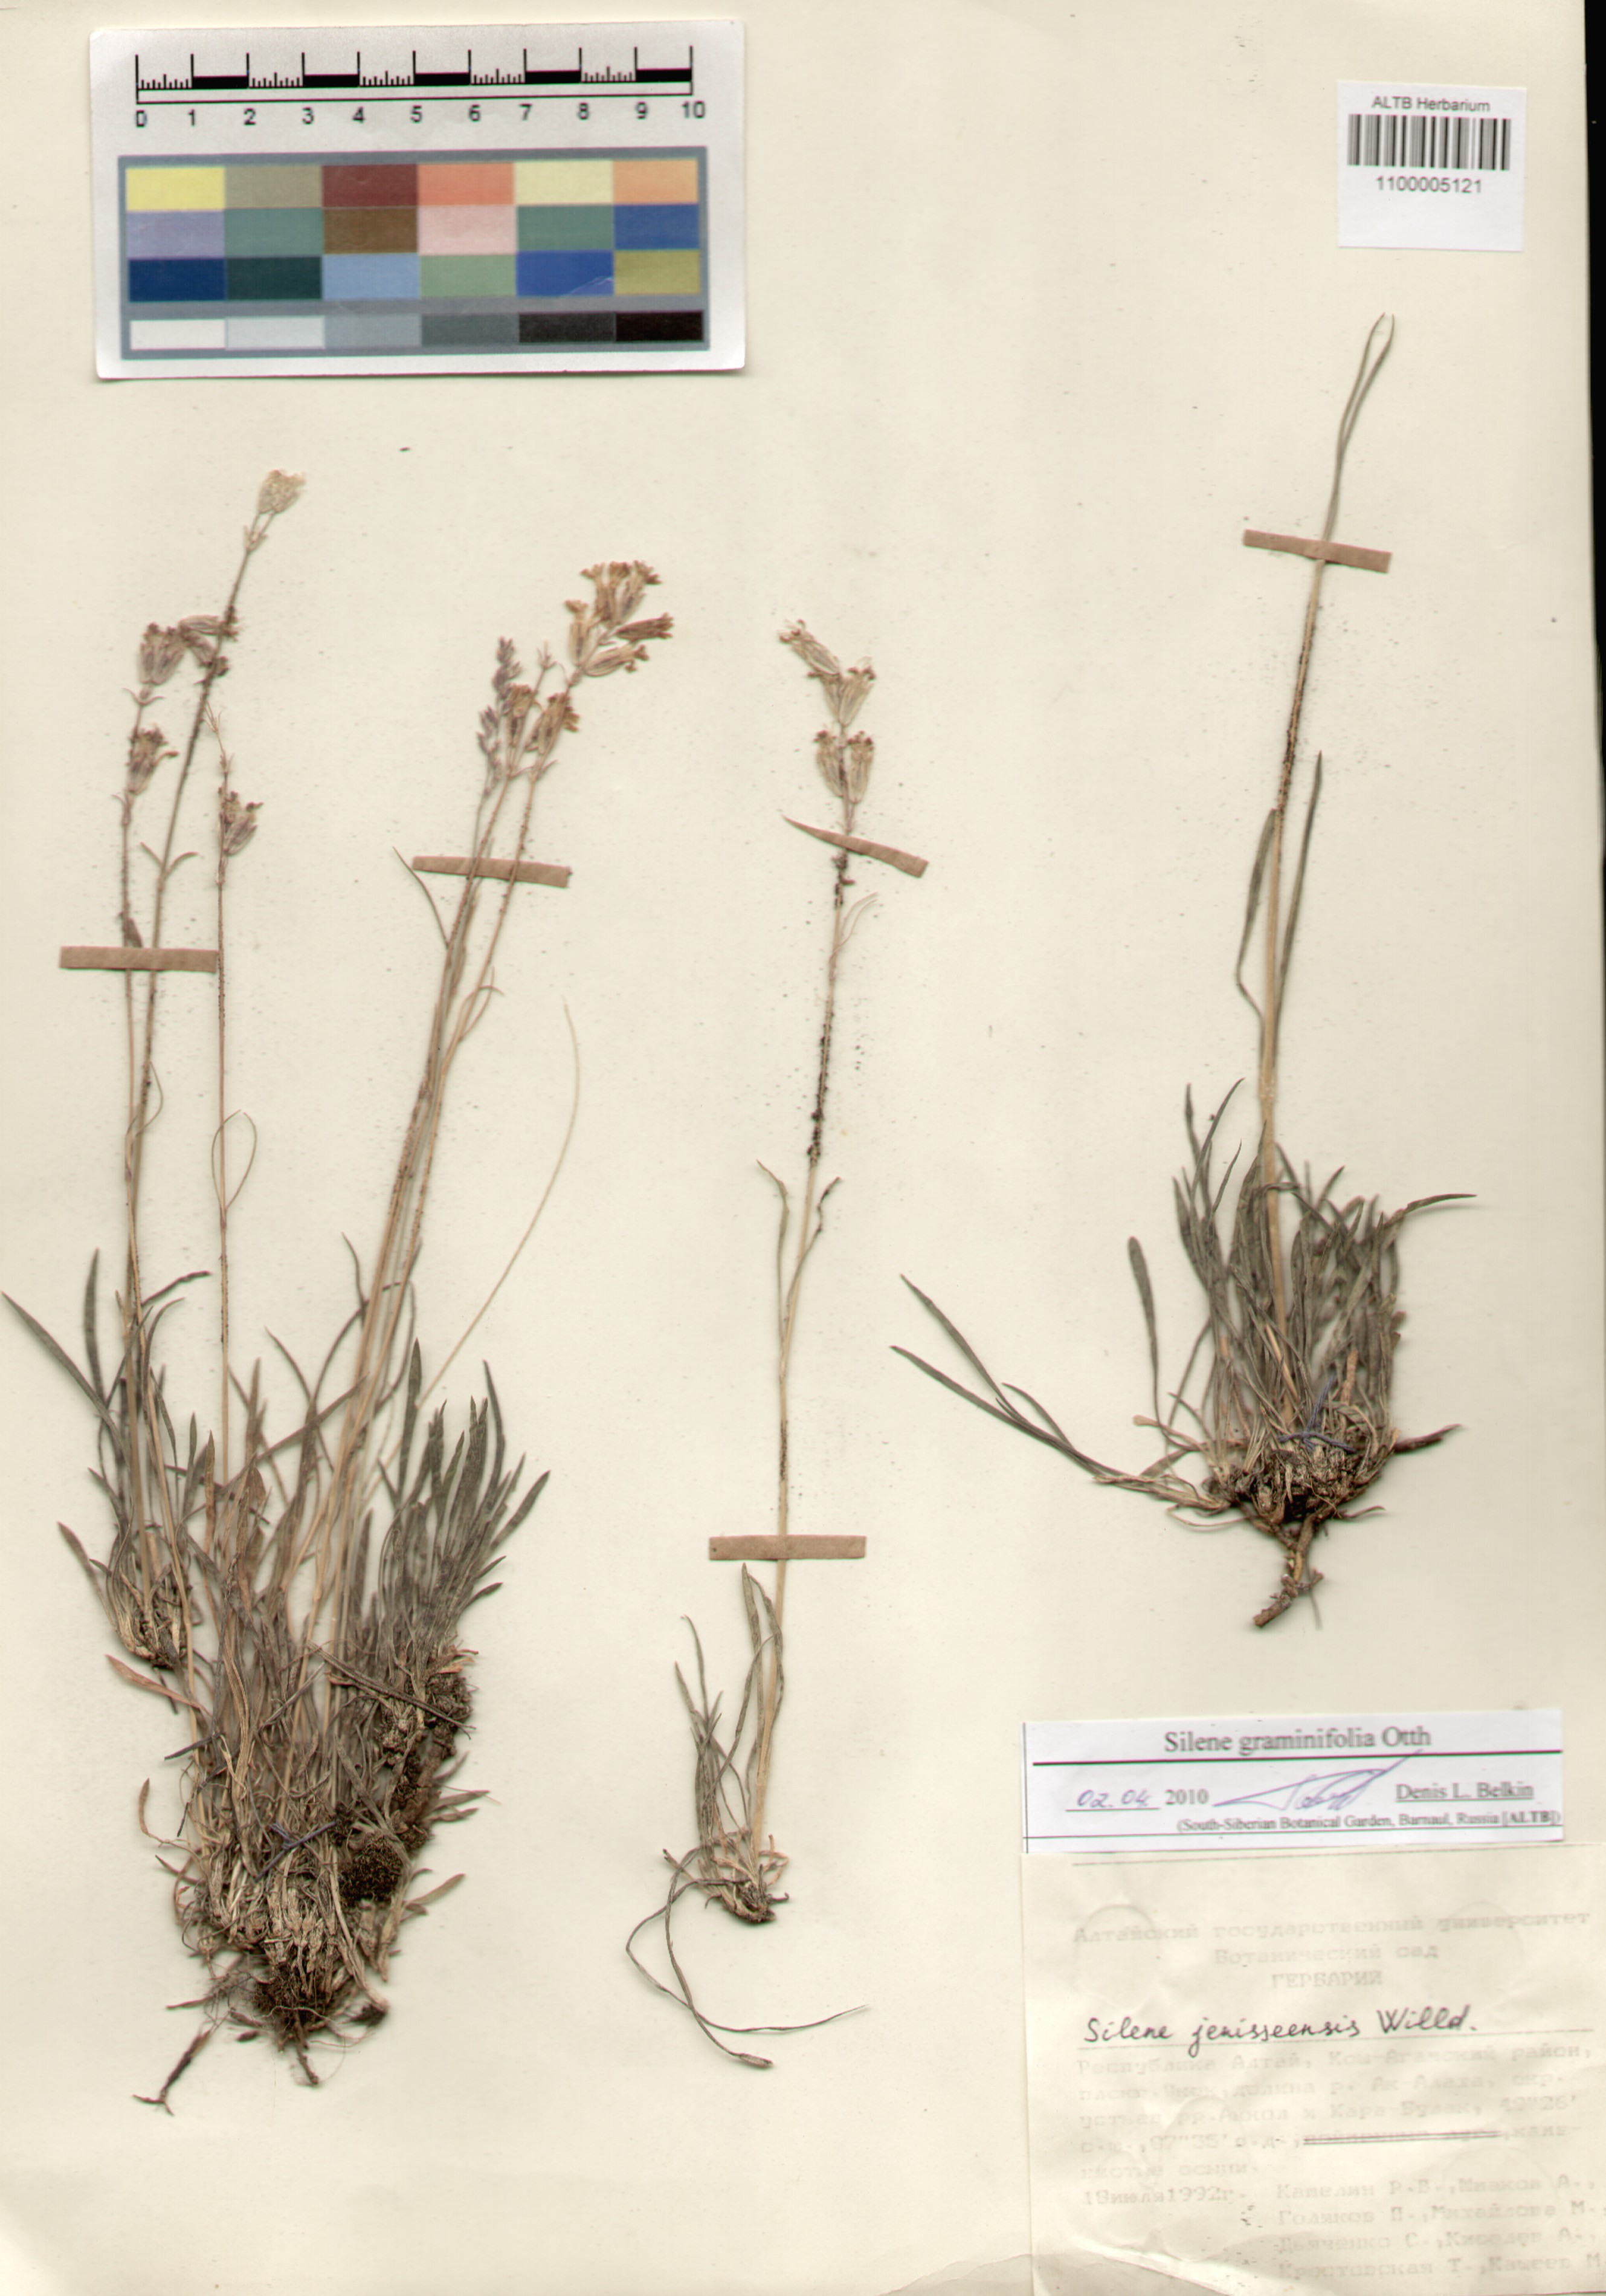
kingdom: Plantae
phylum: Tracheophyta
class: Magnoliopsida
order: Caryophyllales
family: Caryophyllaceae
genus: Silene
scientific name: Silene graminifolia
